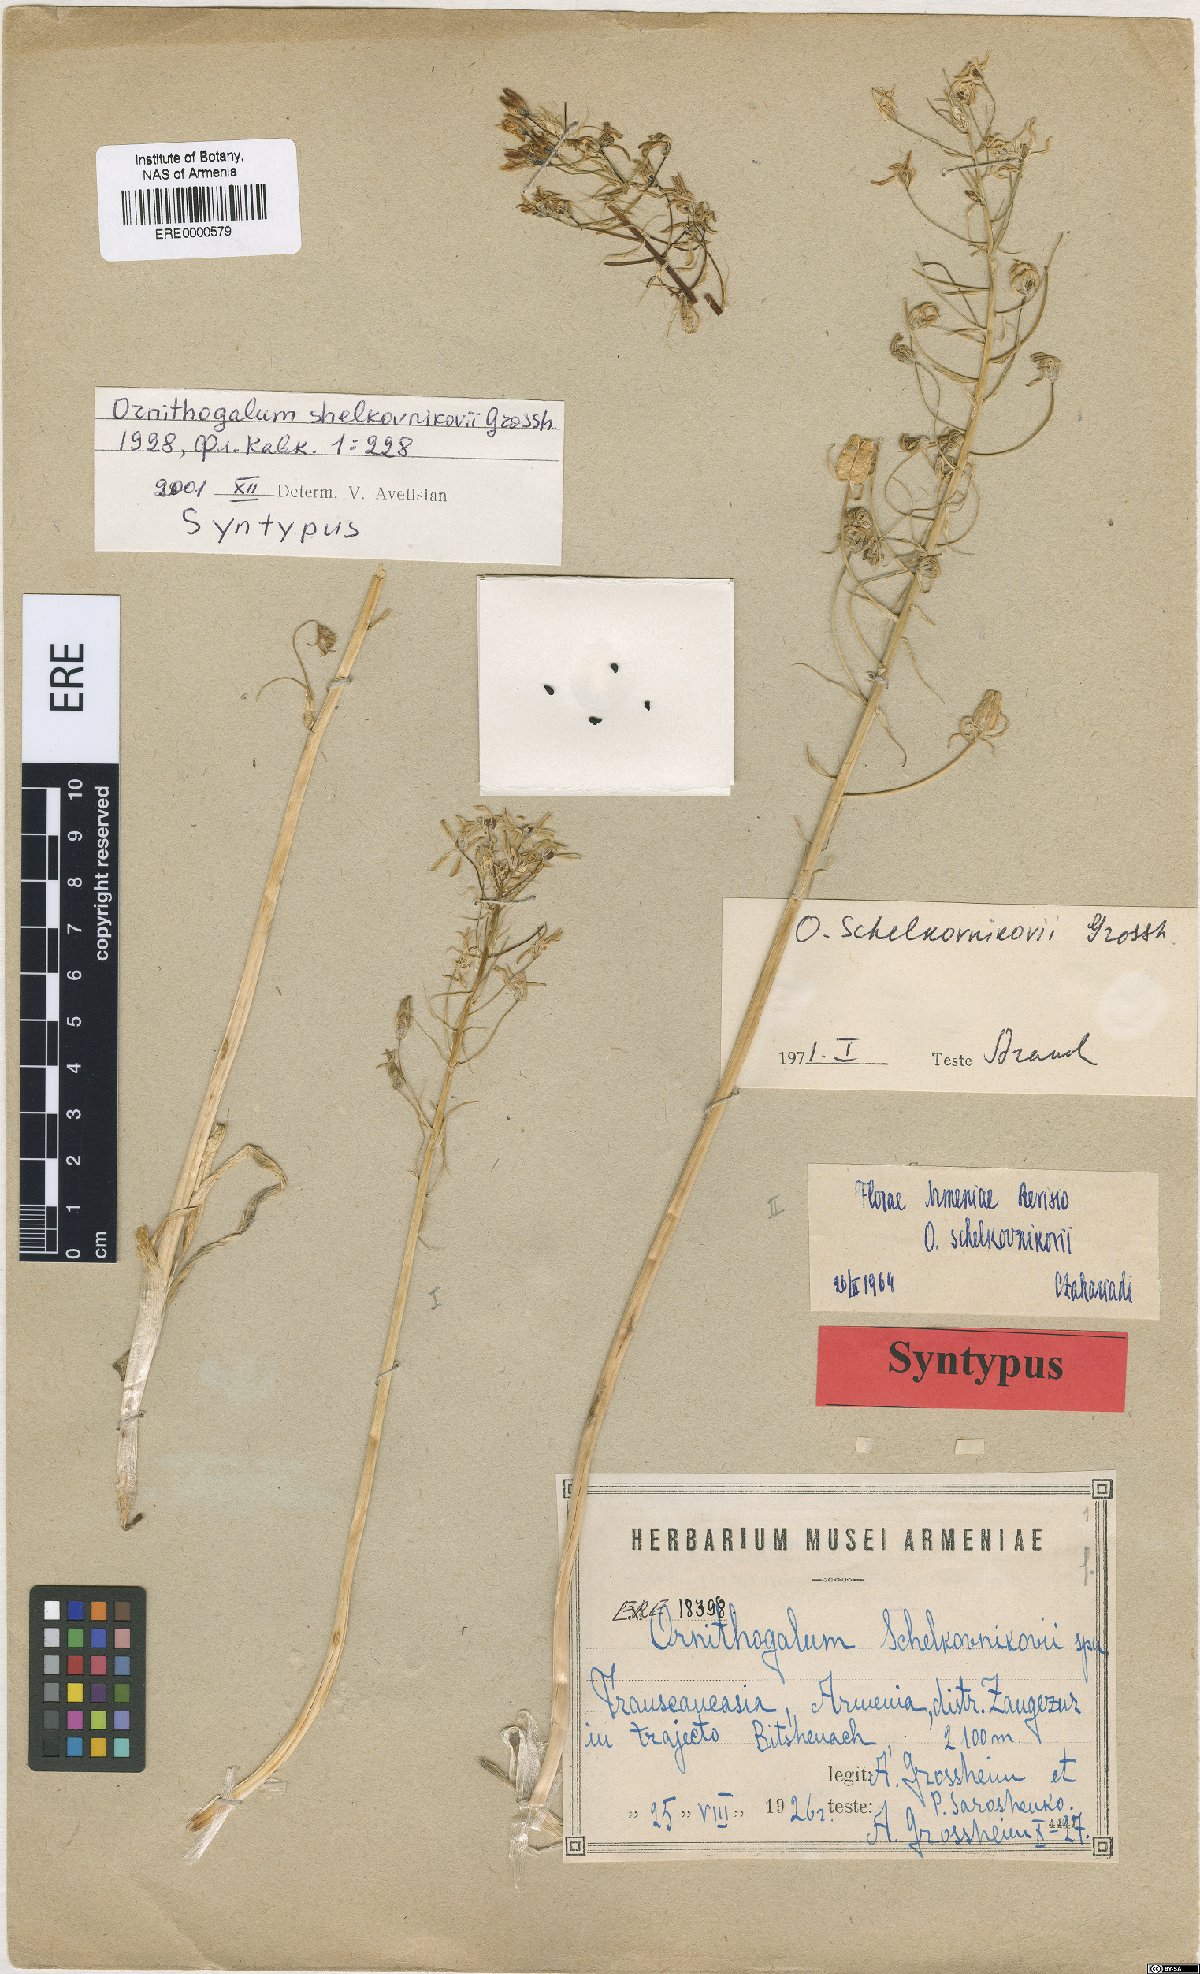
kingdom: Plantae
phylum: Tracheophyta
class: Liliopsida
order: Asparagales
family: Asparagaceae
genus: Ornithogalum
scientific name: Ornithogalum arcuatum
